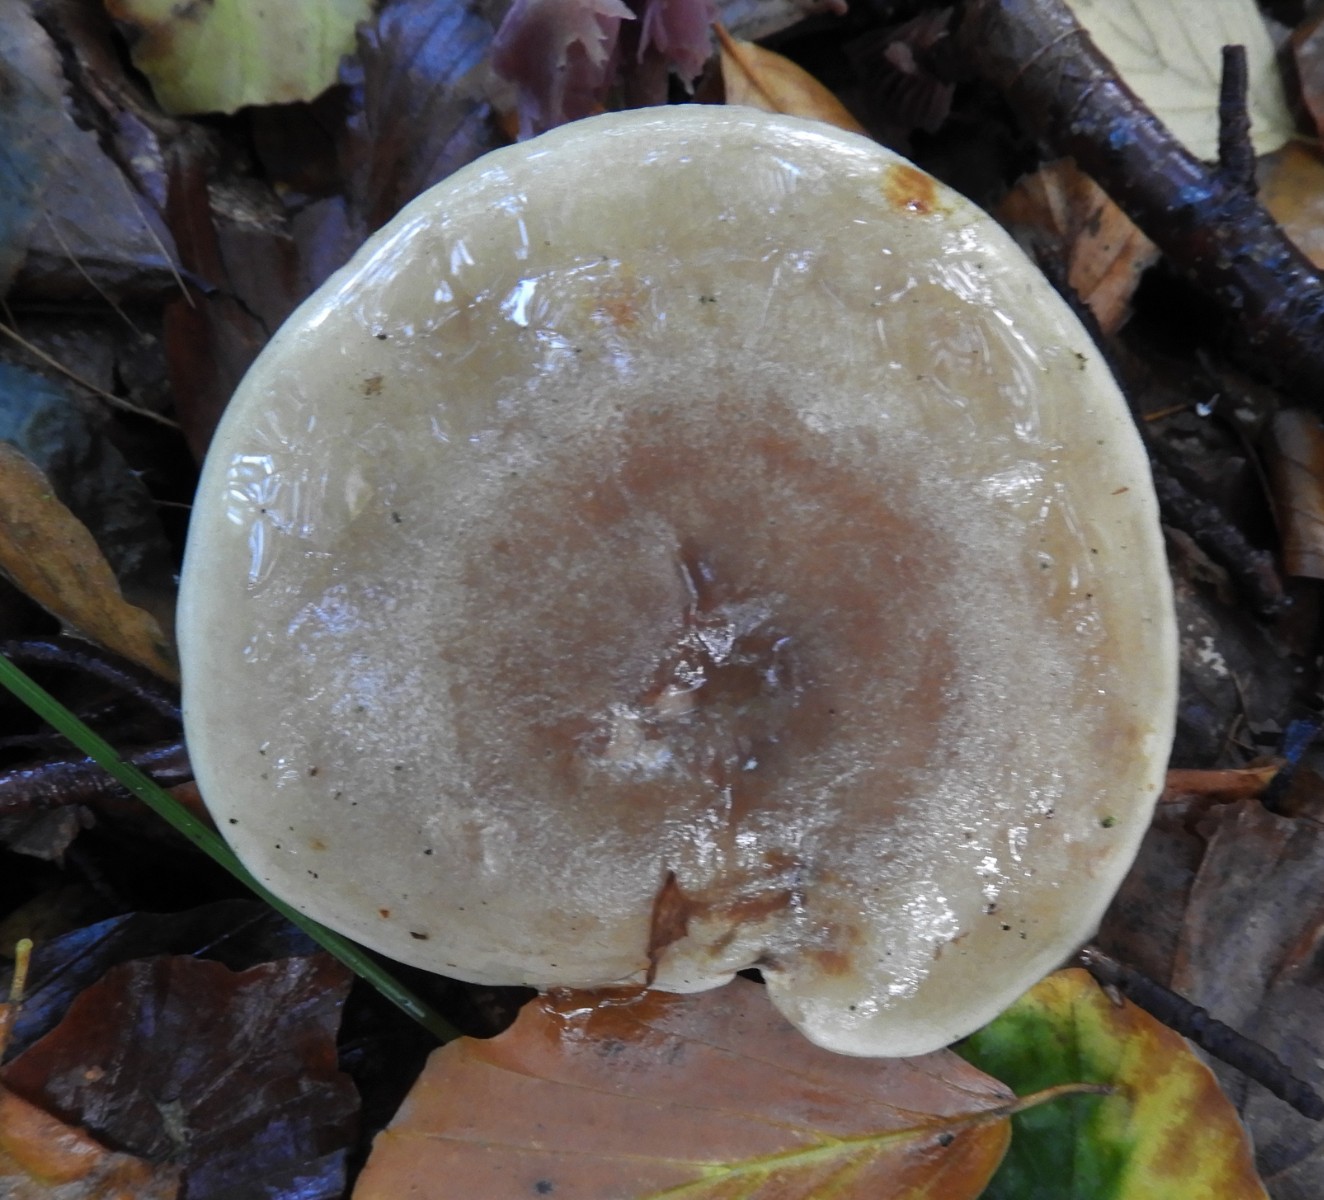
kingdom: Fungi
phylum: Basidiomycota
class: Agaricomycetes
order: Russulales
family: Russulaceae
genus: Lactarius
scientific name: Lactarius fluens
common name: lysrandet mælkehat
